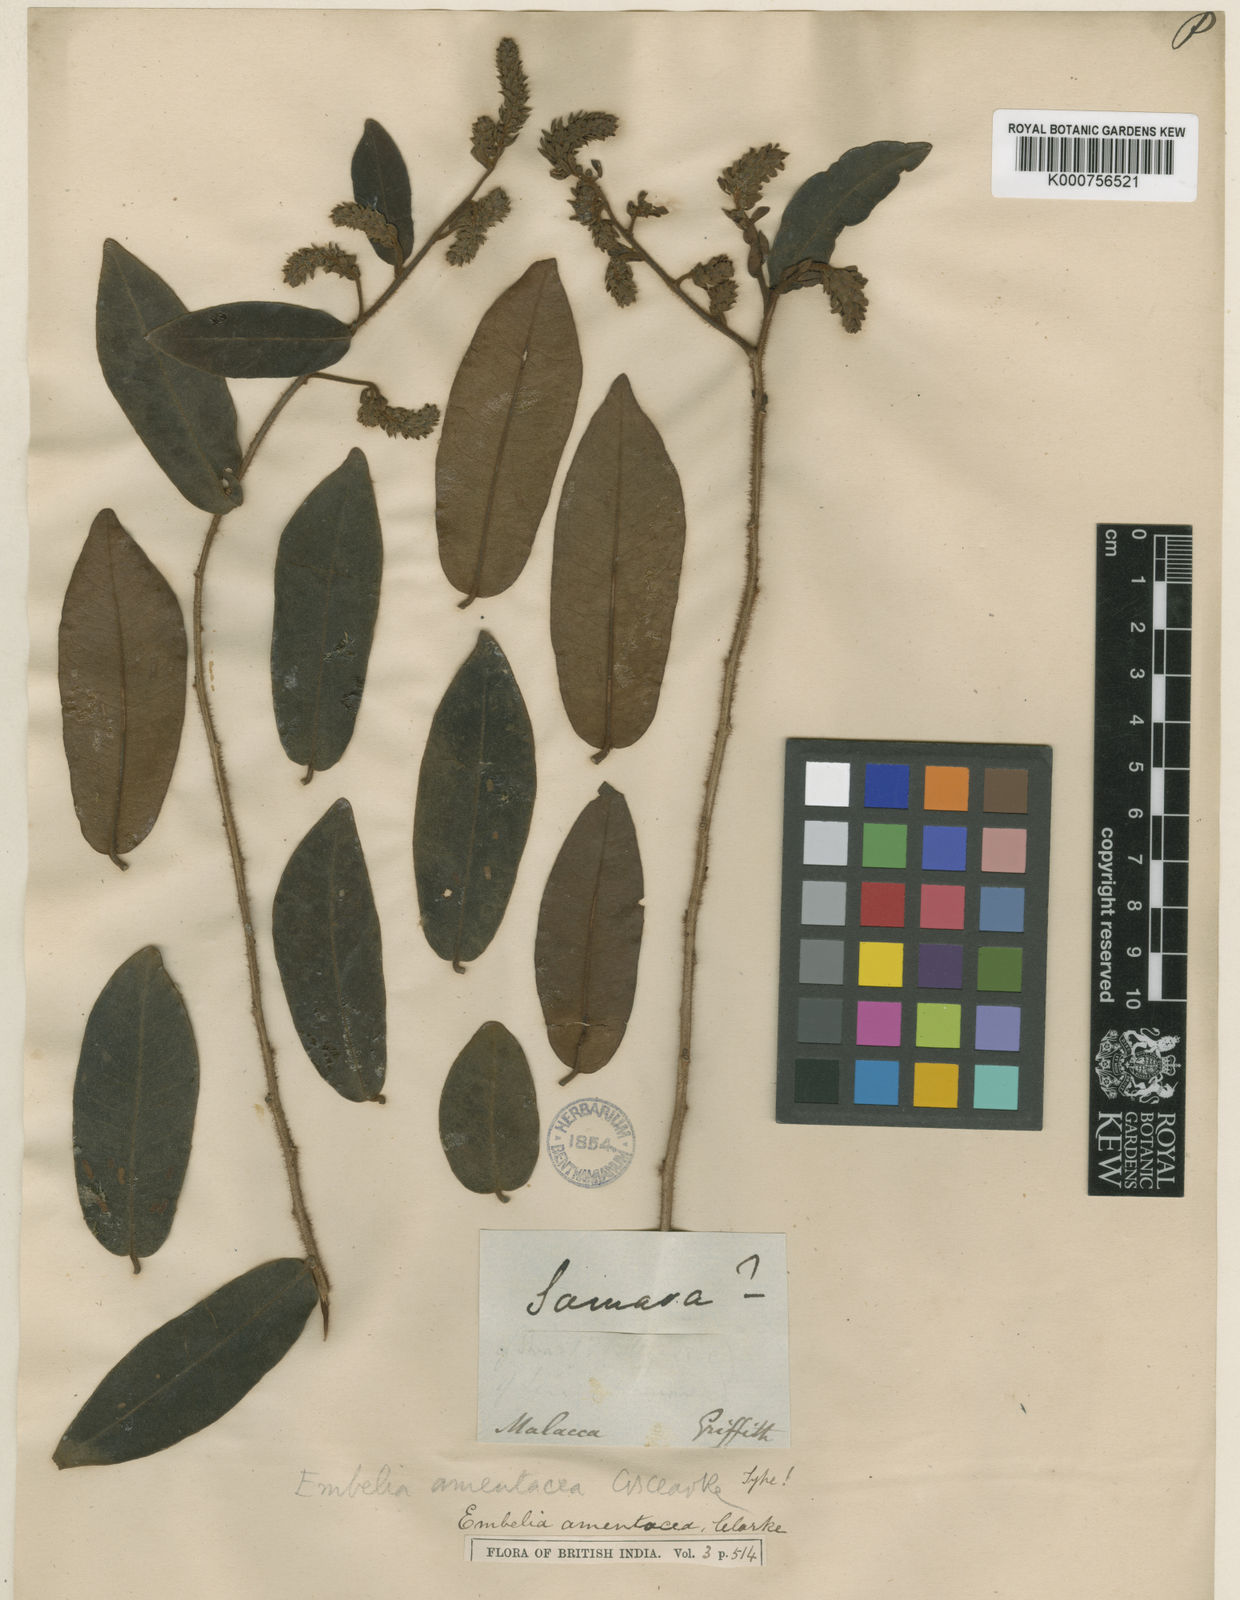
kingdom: Plantae
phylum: Tracheophyta
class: Magnoliopsida
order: Ericales
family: Primulaceae
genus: Grenacheria
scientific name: Grenacheria amentacea
